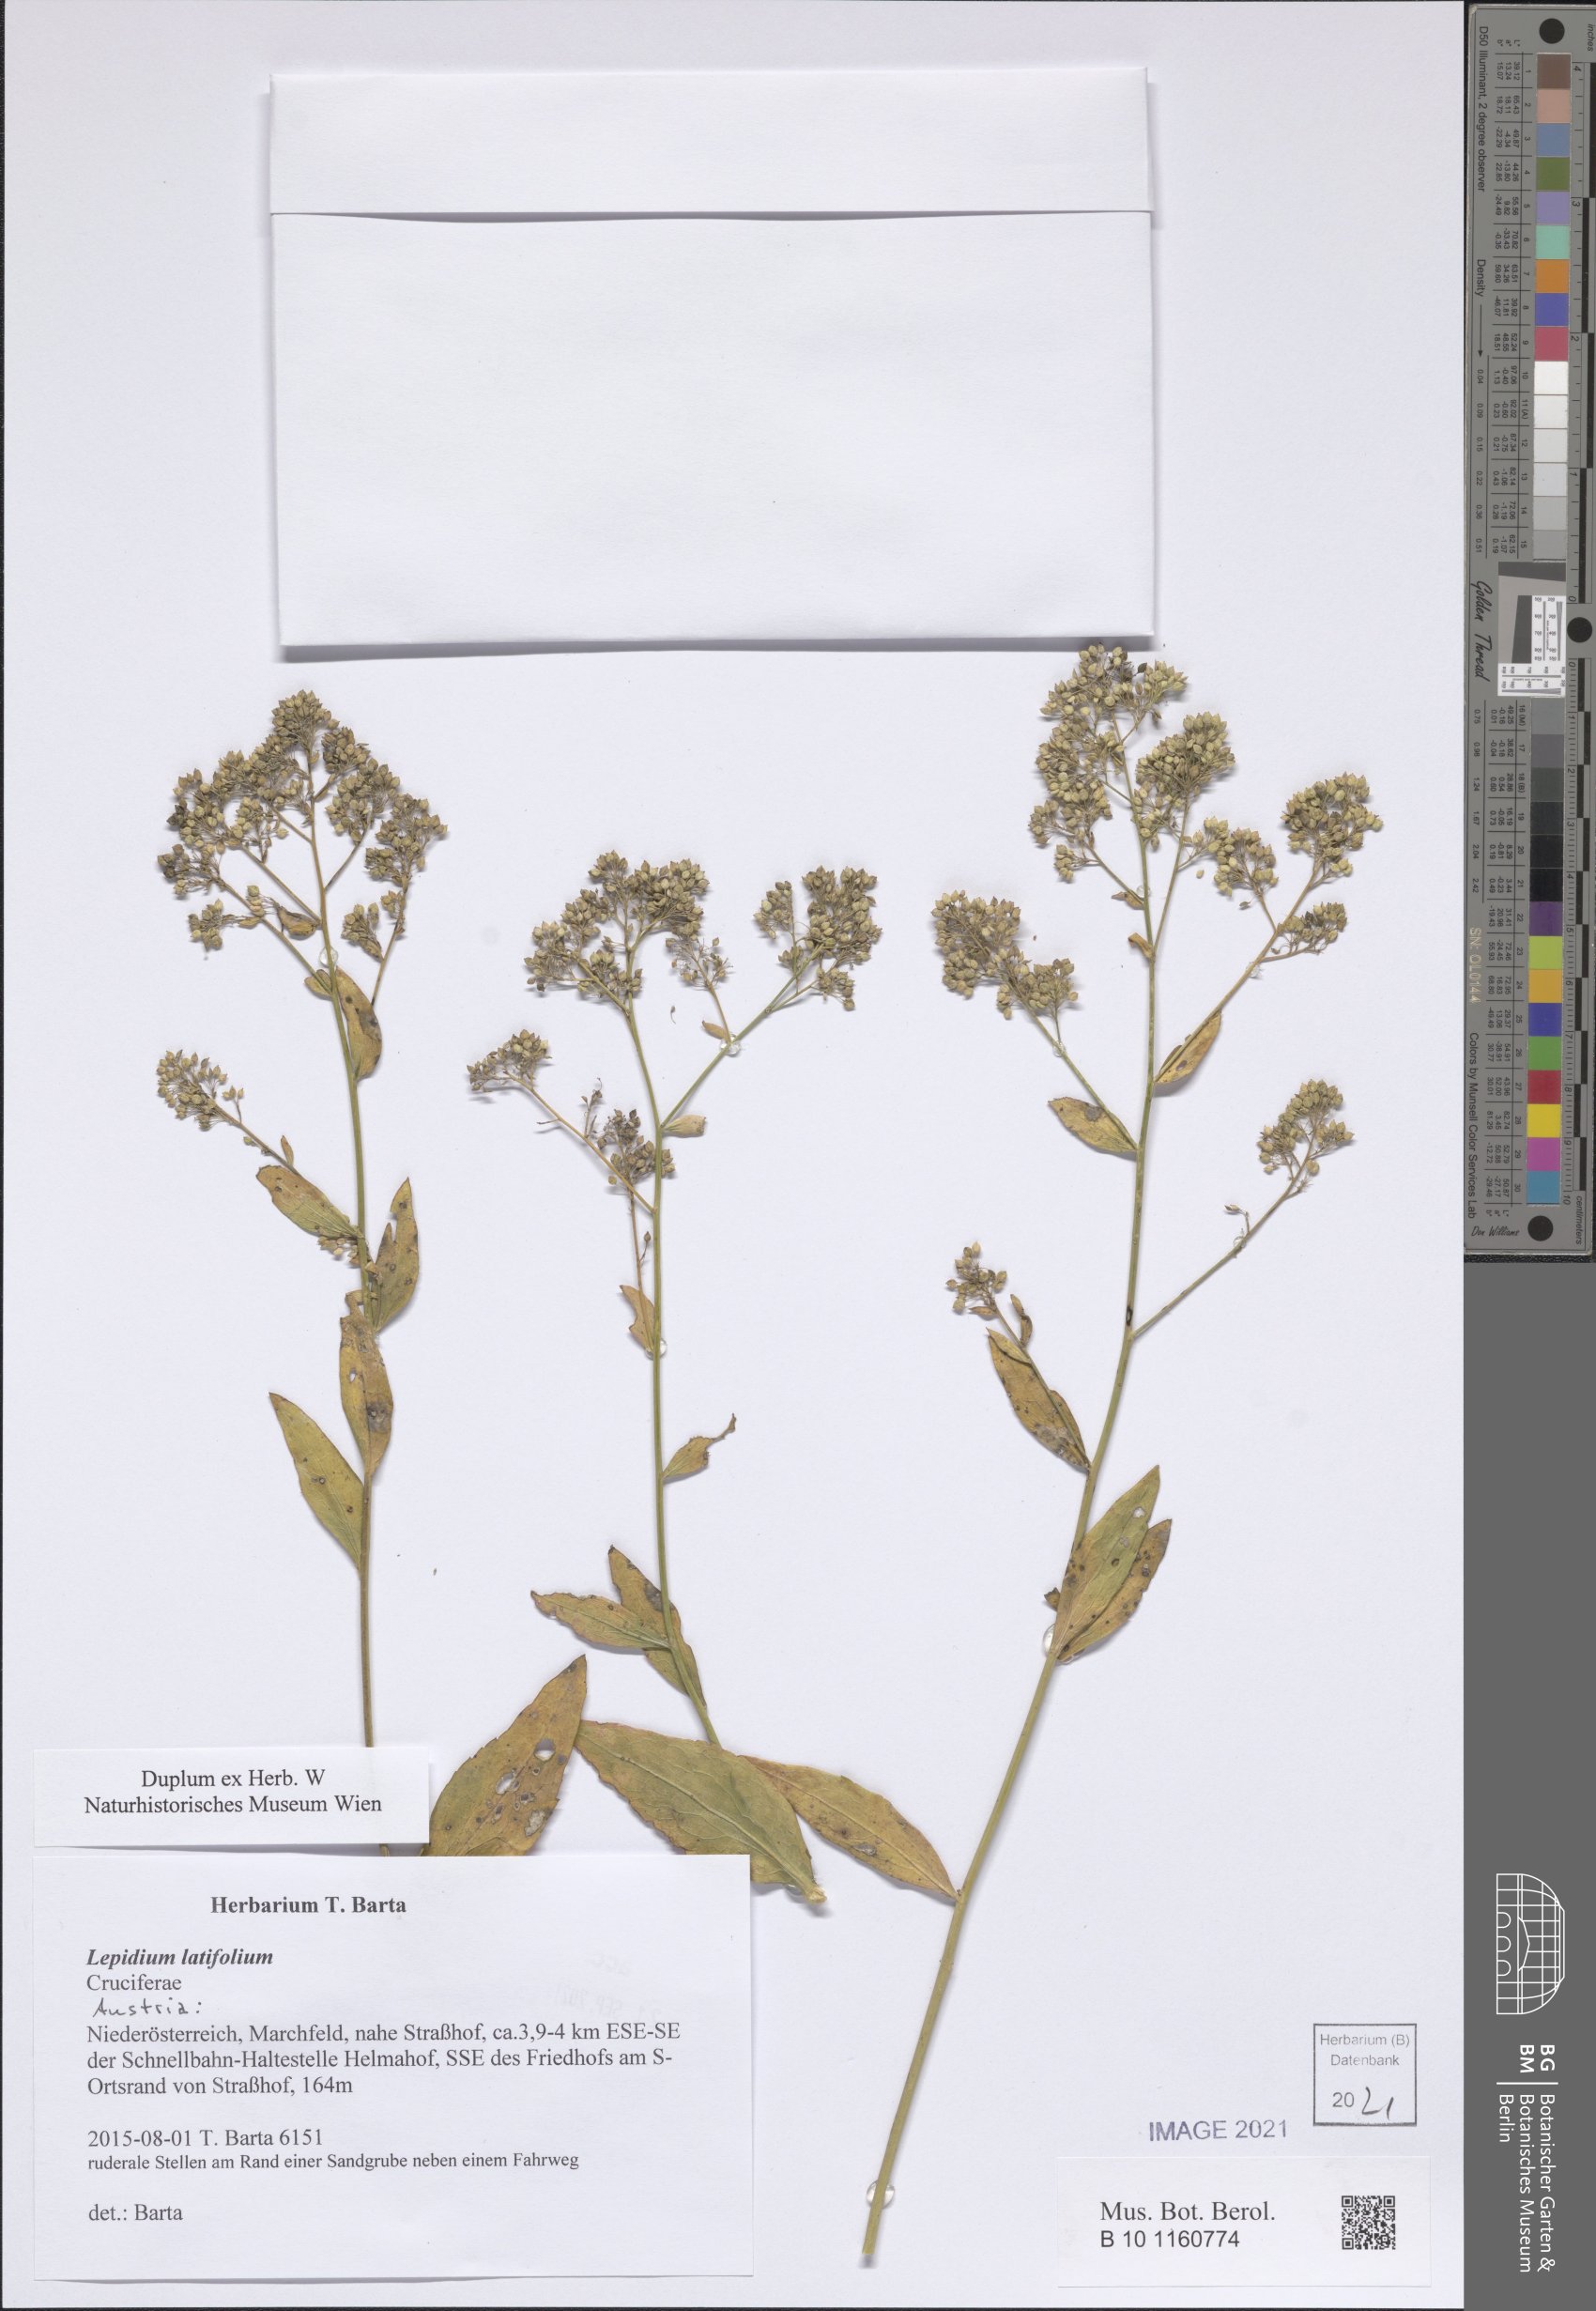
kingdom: Plantae
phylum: Tracheophyta
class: Magnoliopsida
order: Brassicales
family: Brassicaceae
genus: Lepidium
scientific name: Lepidium latifolium
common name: Dittander
